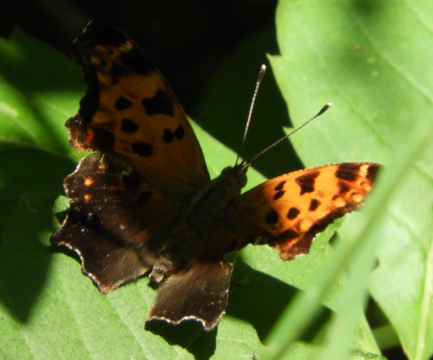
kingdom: Animalia
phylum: Arthropoda
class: Insecta
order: Lepidoptera
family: Nymphalidae
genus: Polygonia
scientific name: Polygonia comma
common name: Eastern Comma
